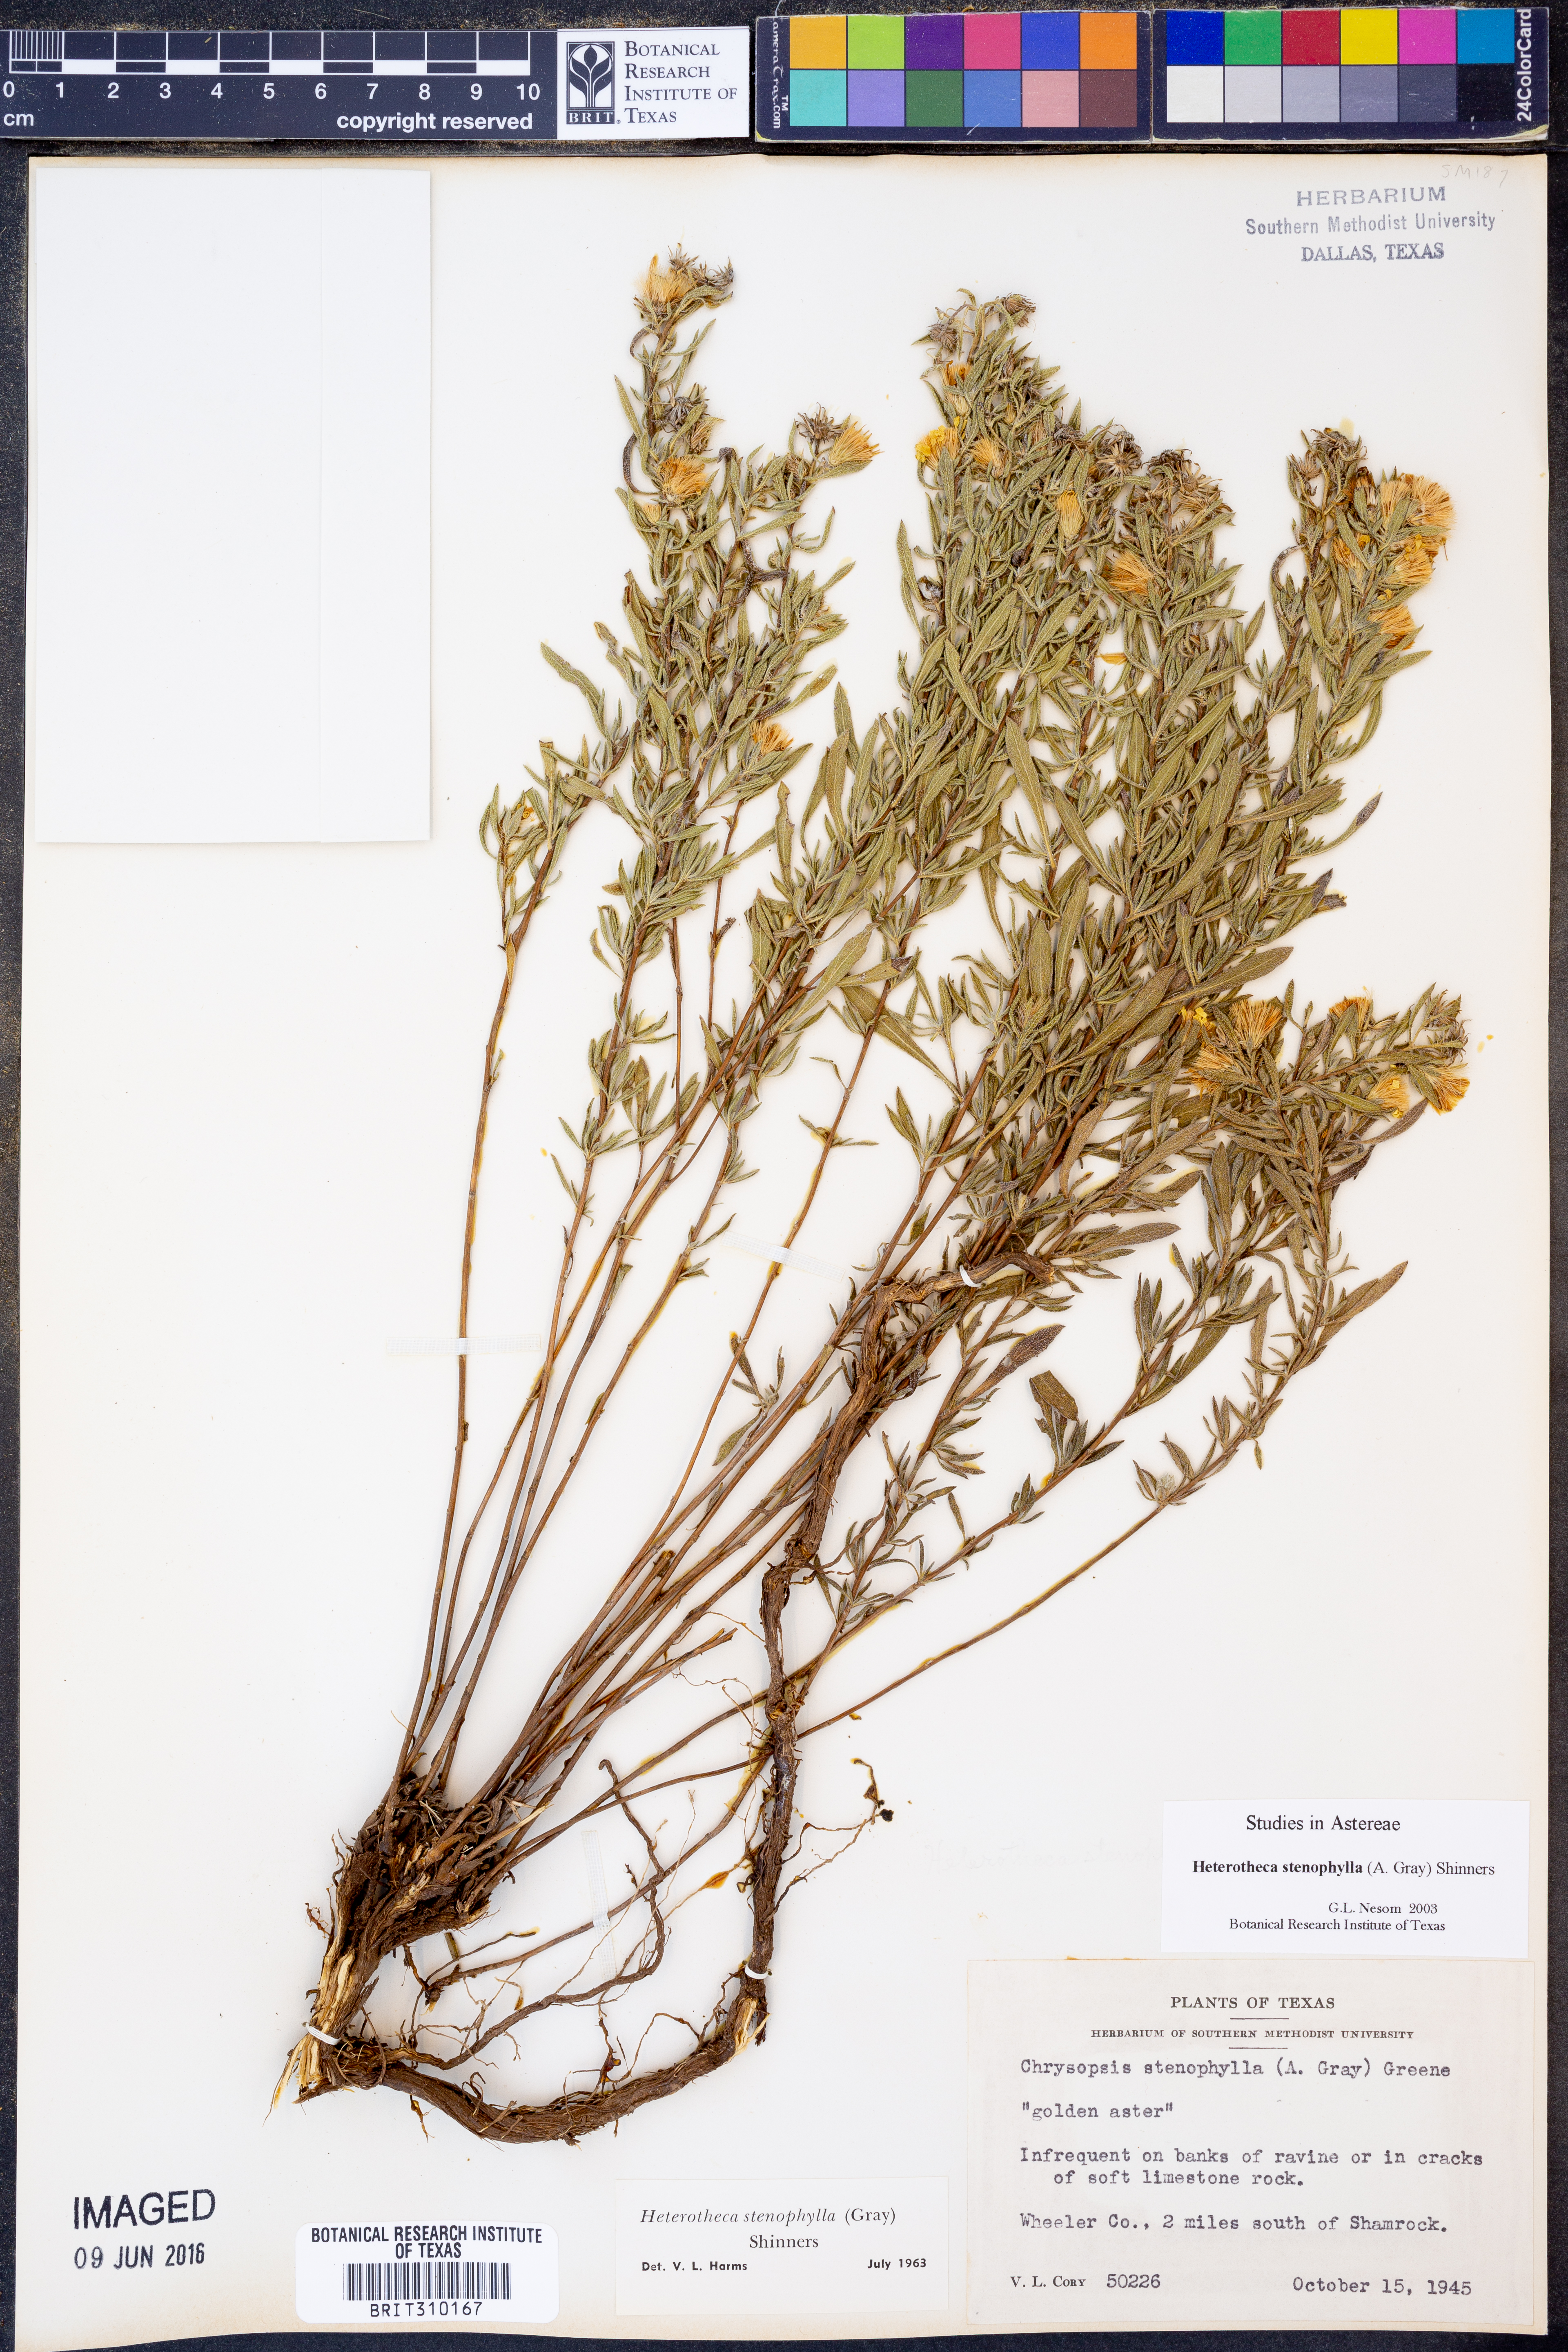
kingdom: Plantae
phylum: Tracheophyta
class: Magnoliopsida
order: Asterales
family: Asteraceae
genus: Heterotheca
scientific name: Heterotheca stenophylla
